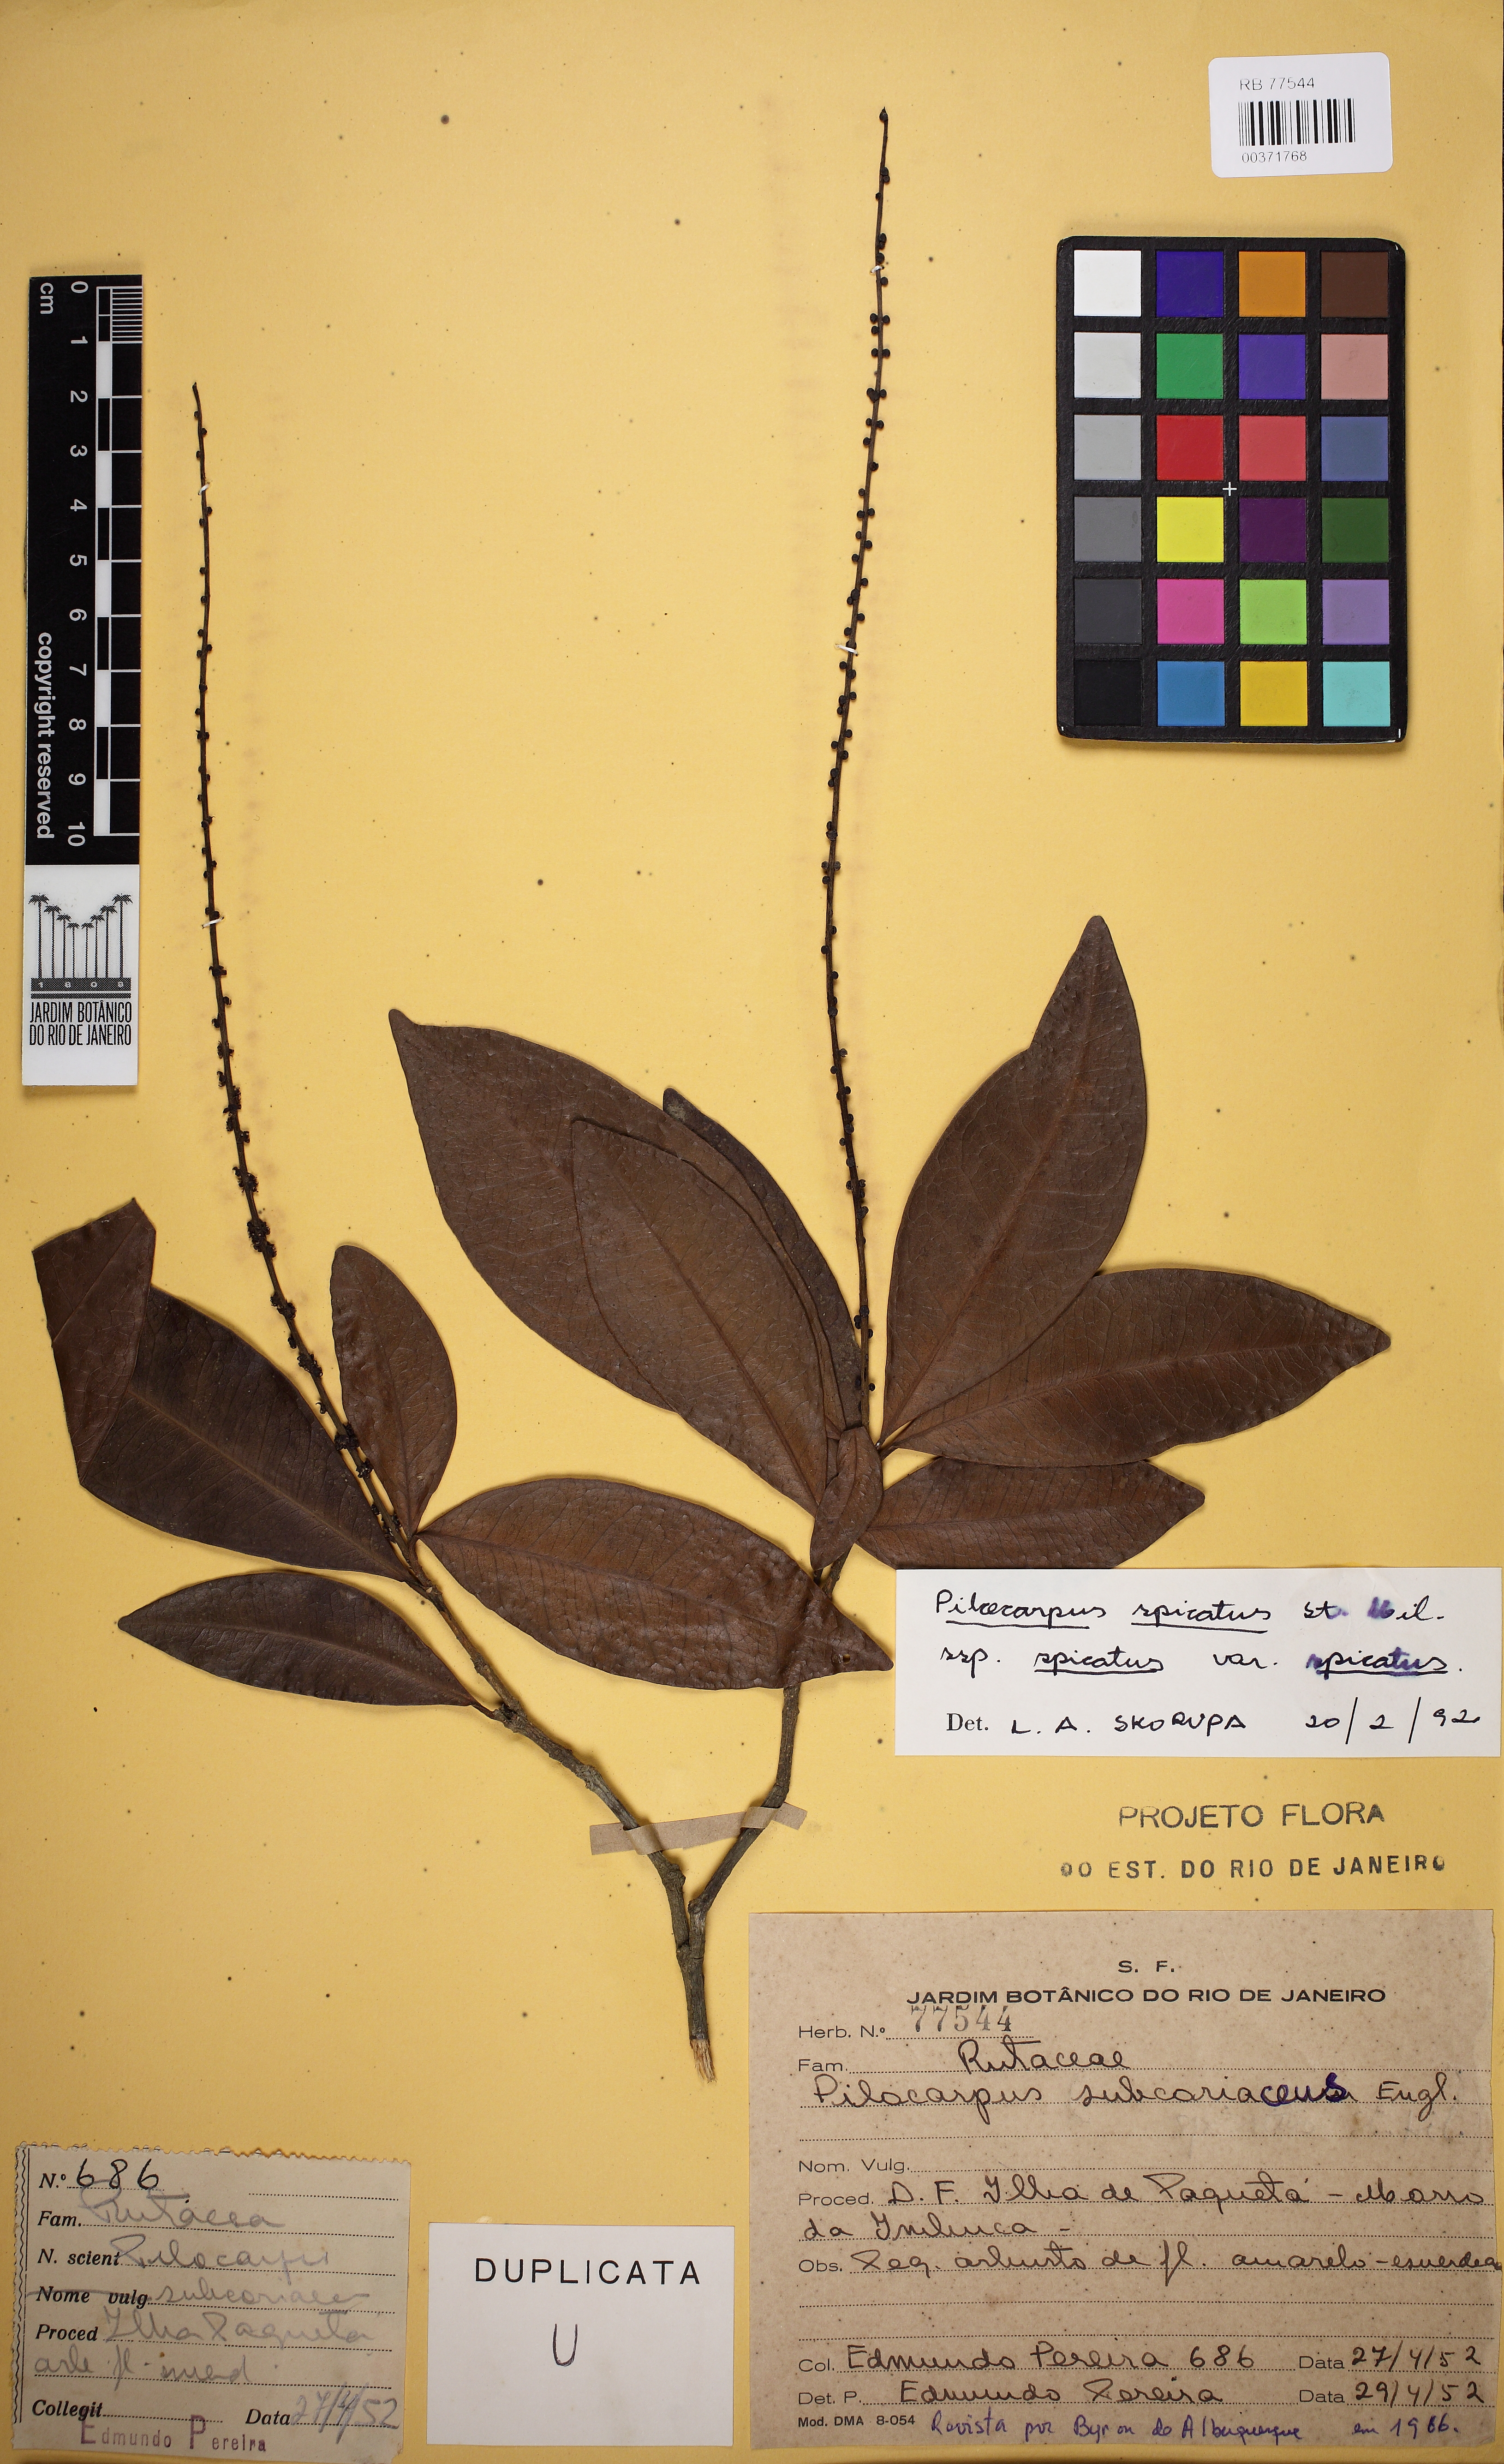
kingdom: Plantae
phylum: Tracheophyta
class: Magnoliopsida
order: Sapindales
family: Rutaceae
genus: Pilocarpus
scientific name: Pilocarpus spicatus
